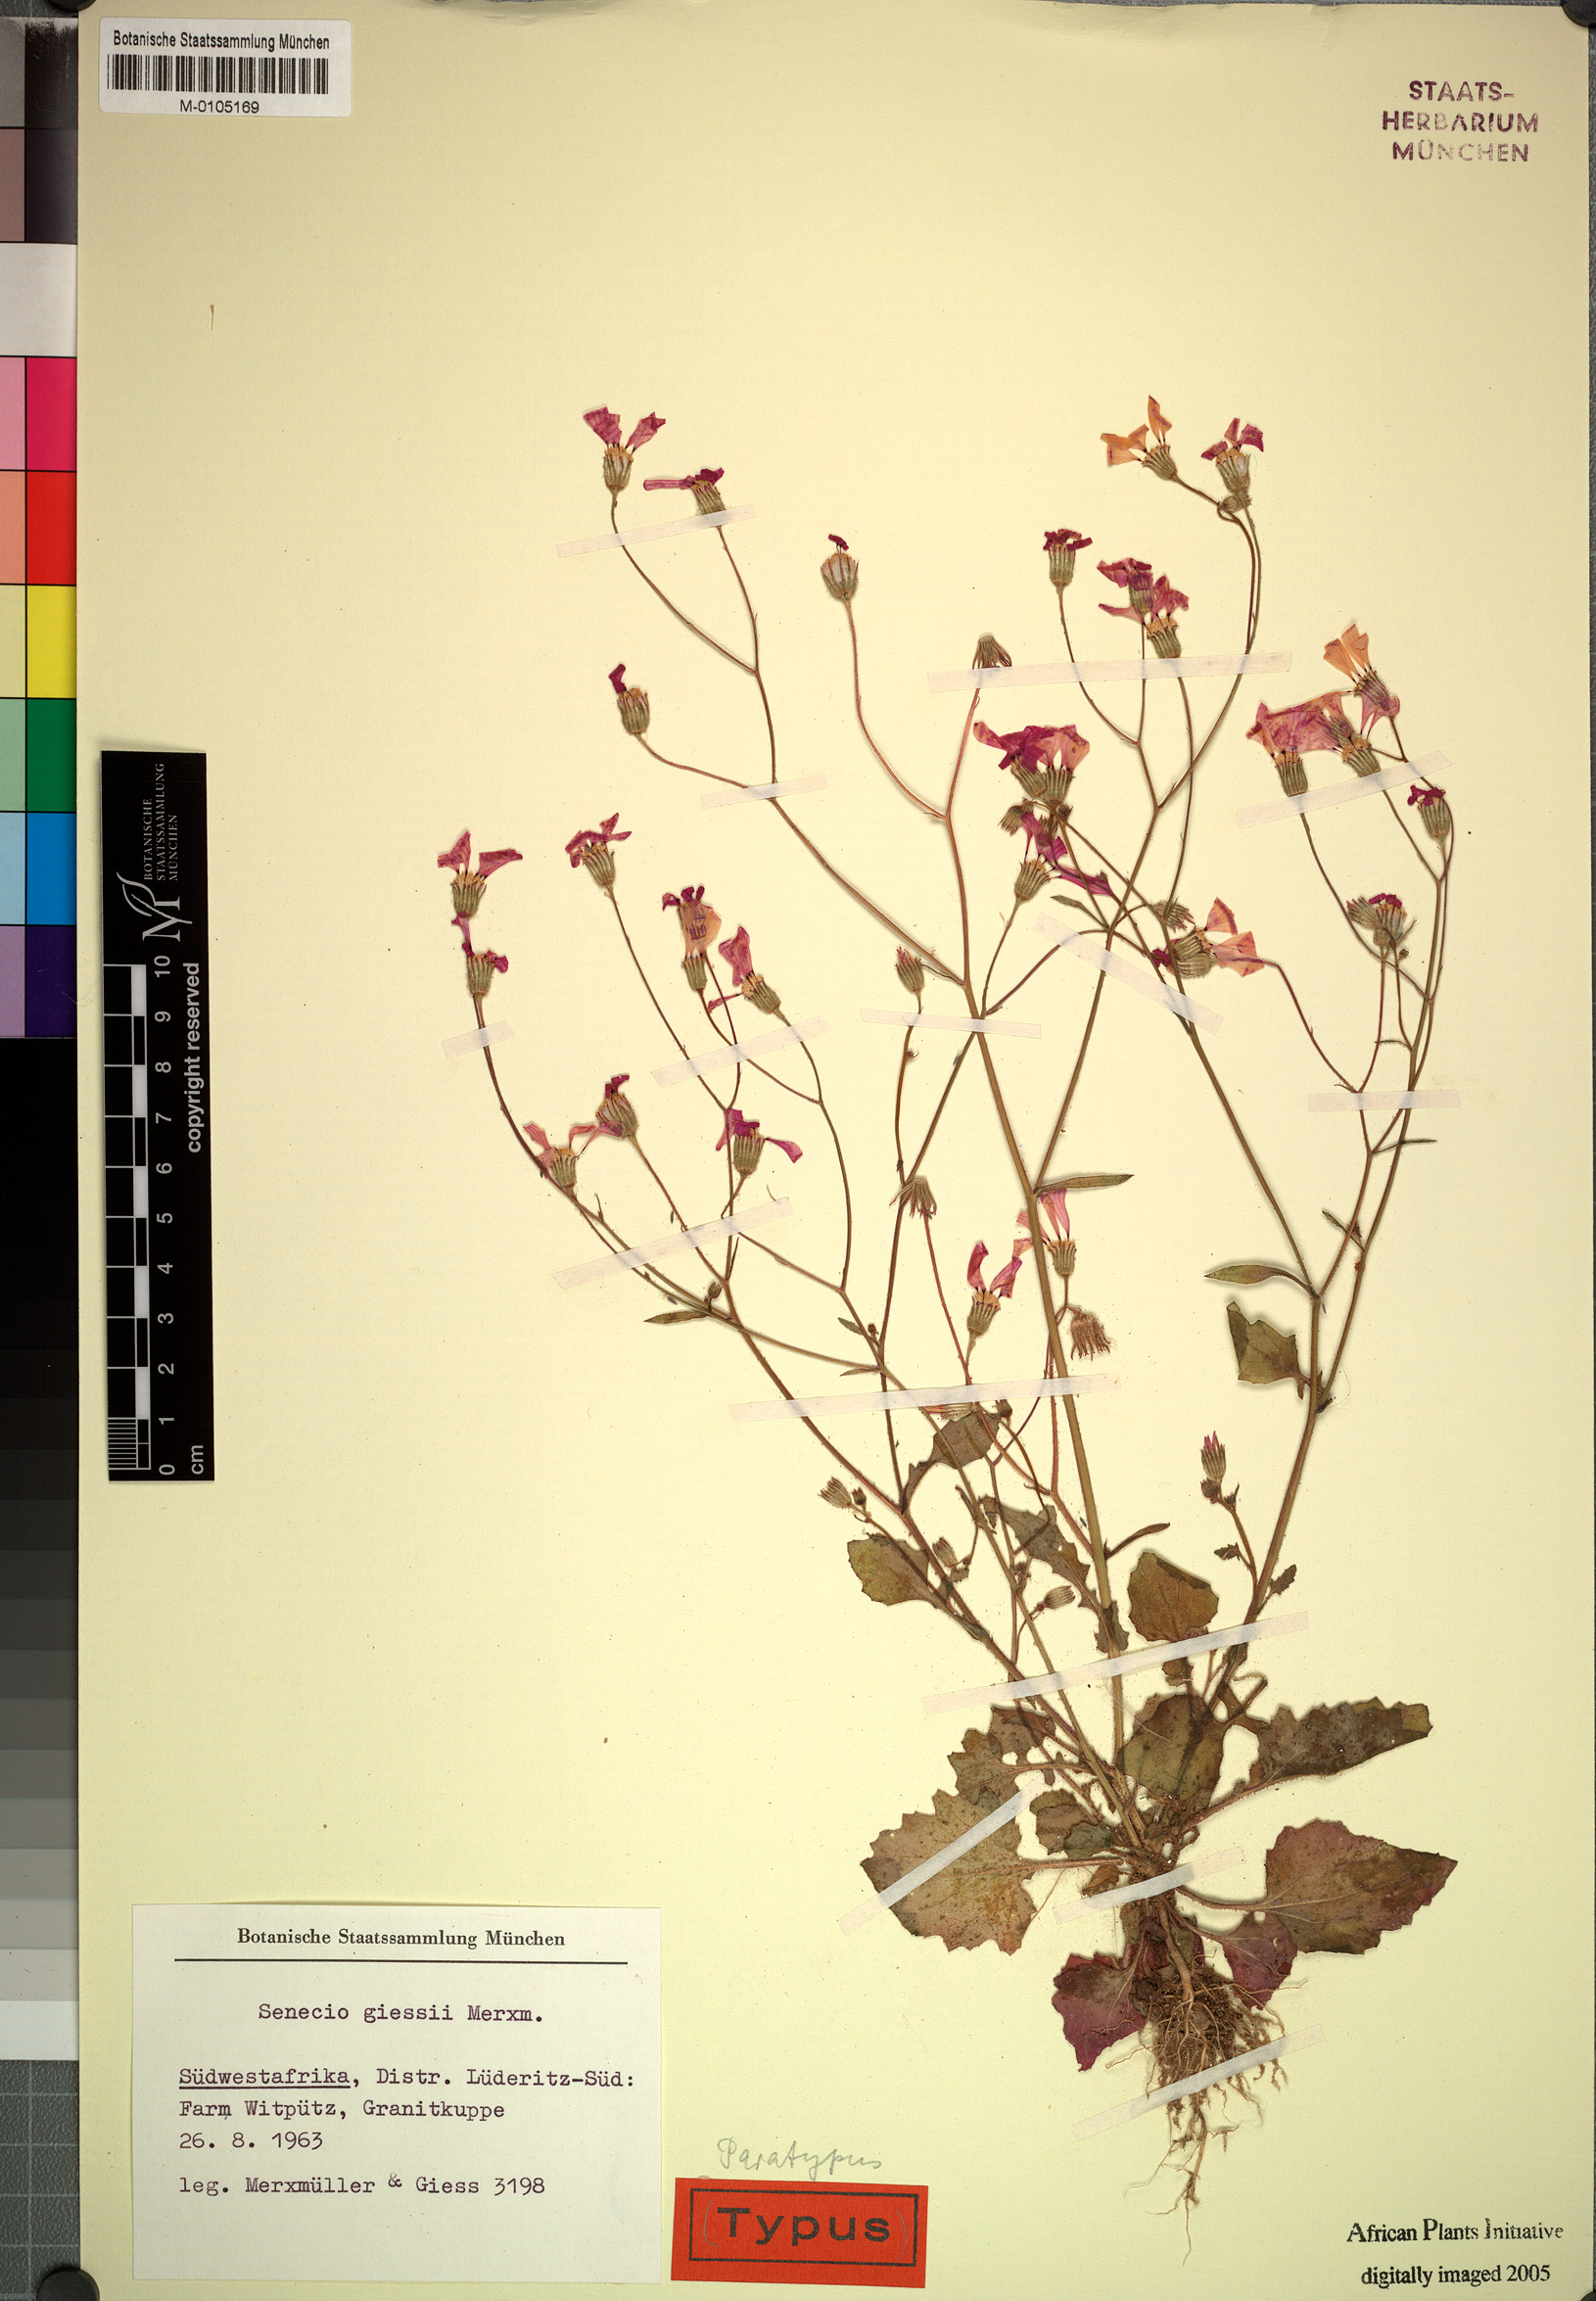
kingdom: Plantae
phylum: Tracheophyta
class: Magnoliopsida
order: Asterales
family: Asteraceae
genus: Senecio
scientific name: Senecio giessii
